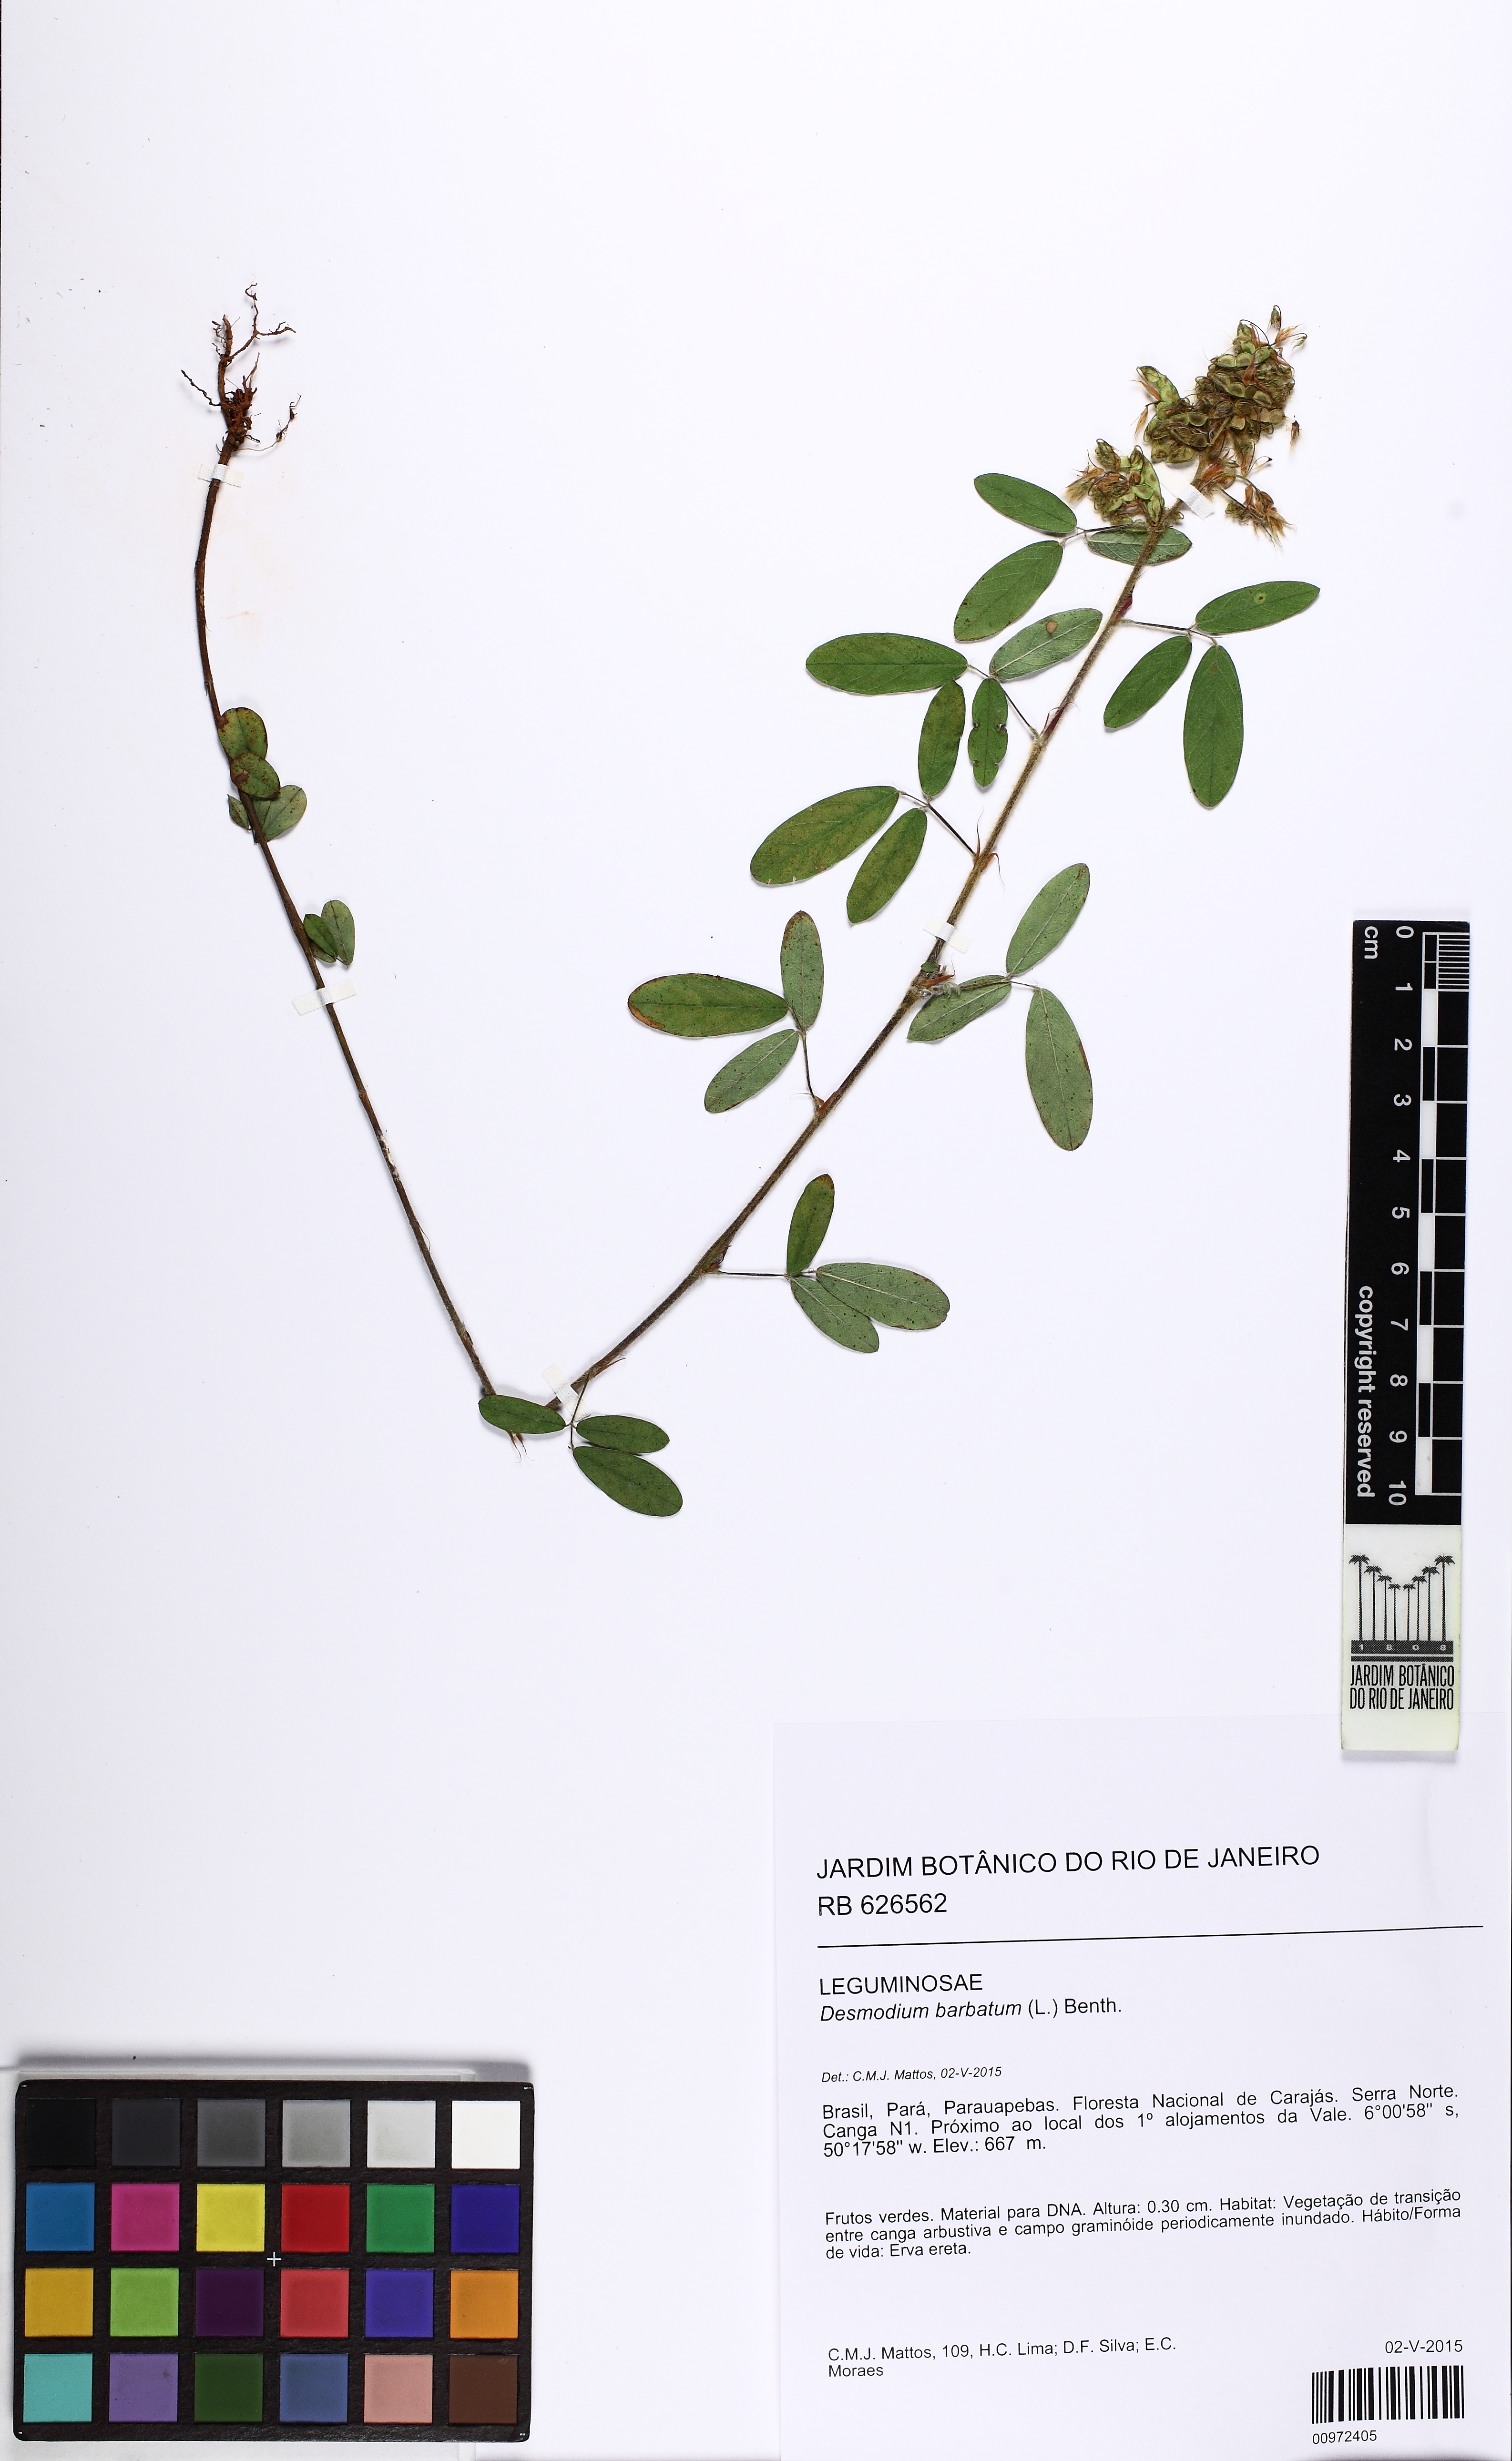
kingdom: Plantae
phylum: Tracheophyta
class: Magnoliopsida
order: Fabales
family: Fabaceae
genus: Grona
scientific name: Grona barbata
